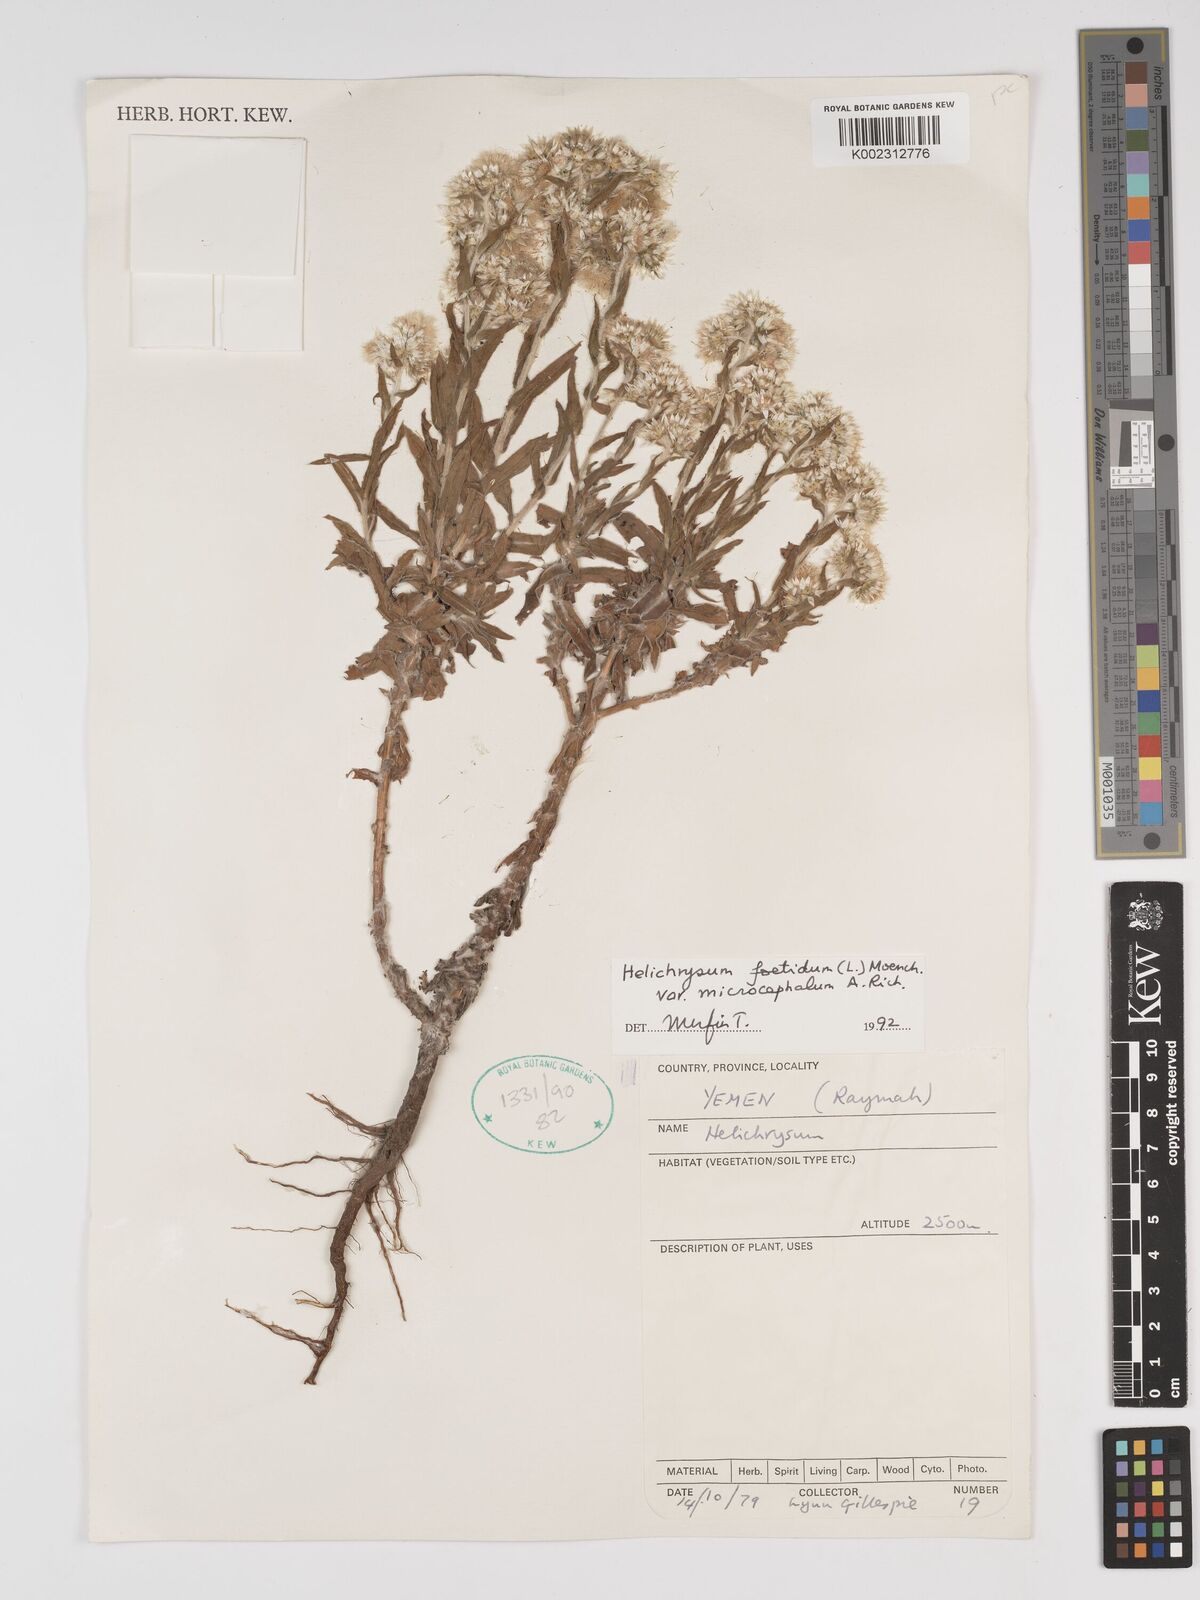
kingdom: Plantae
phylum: Tracheophyta
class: Magnoliopsida
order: Asterales
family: Asteraceae
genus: Helichrysum
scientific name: Helichrysum foetidum
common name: Stinking everlasting
